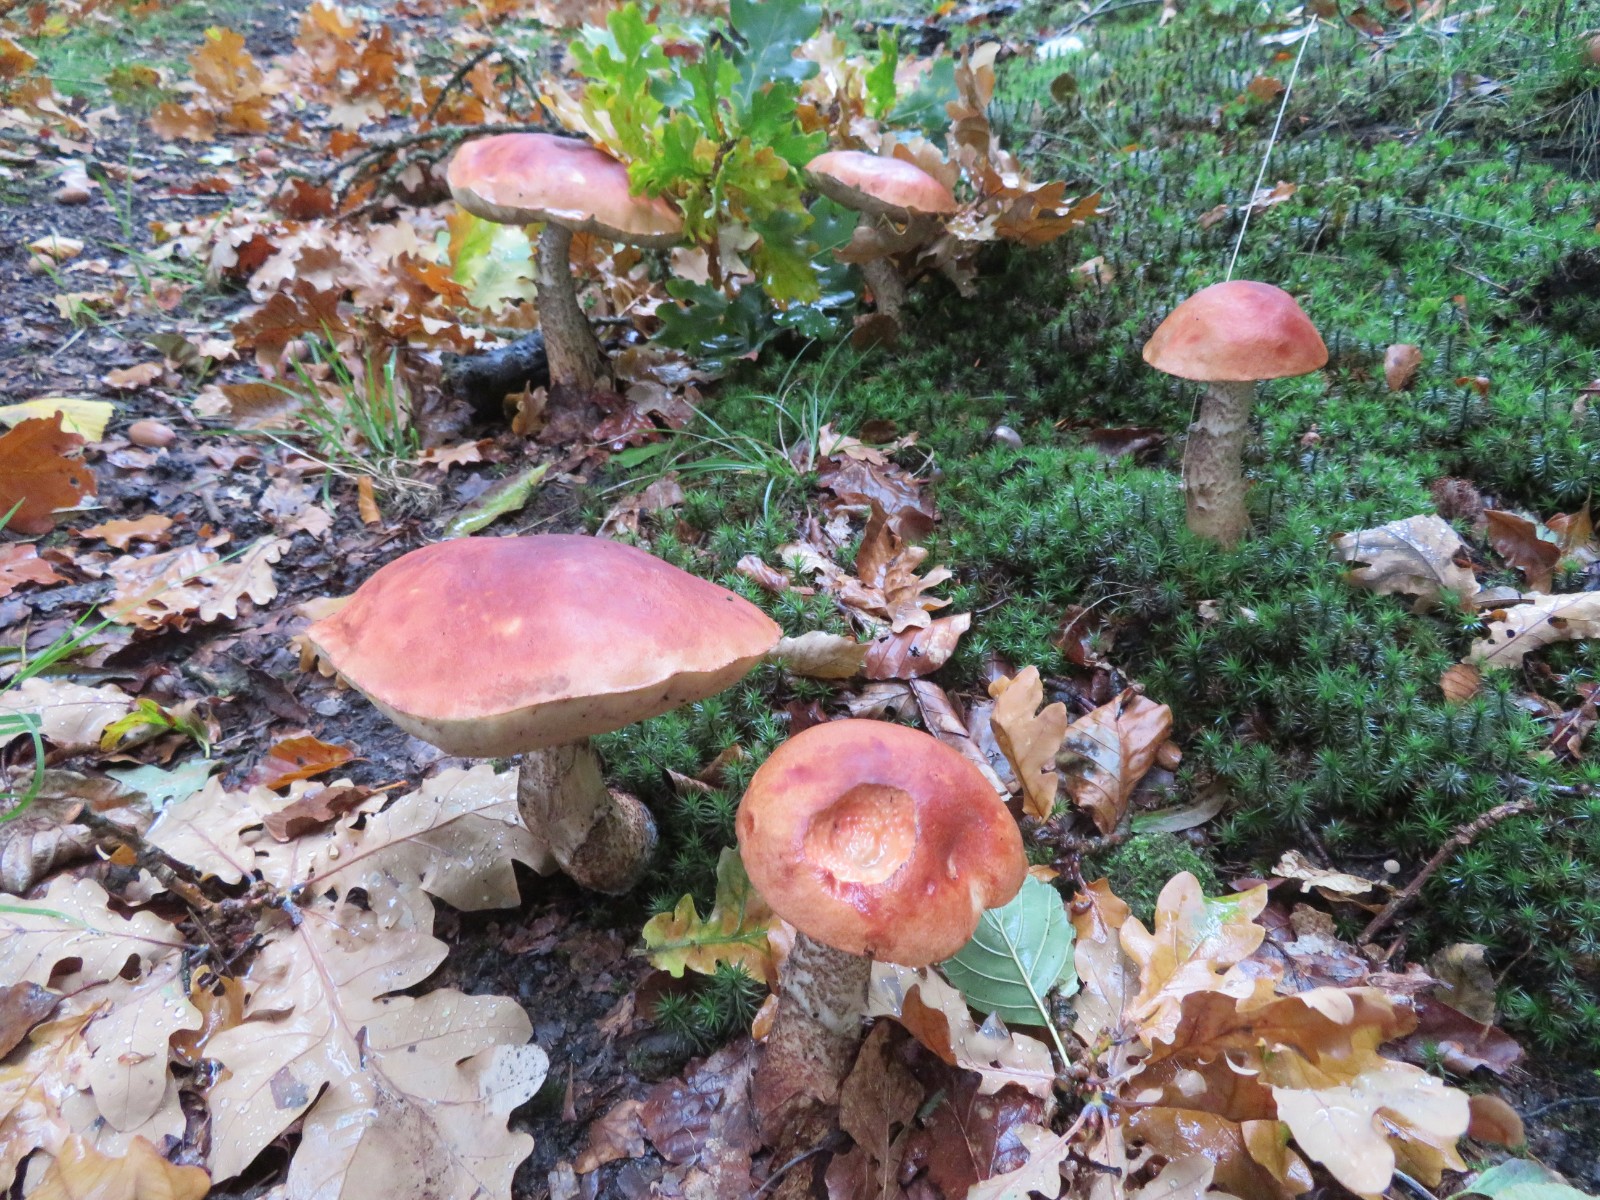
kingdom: Fungi
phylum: Basidiomycota
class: Agaricomycetes
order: Boletales
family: Boletaceae
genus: Leccinum
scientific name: Leccinum aurantiacum
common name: rustrød skælrørhat
